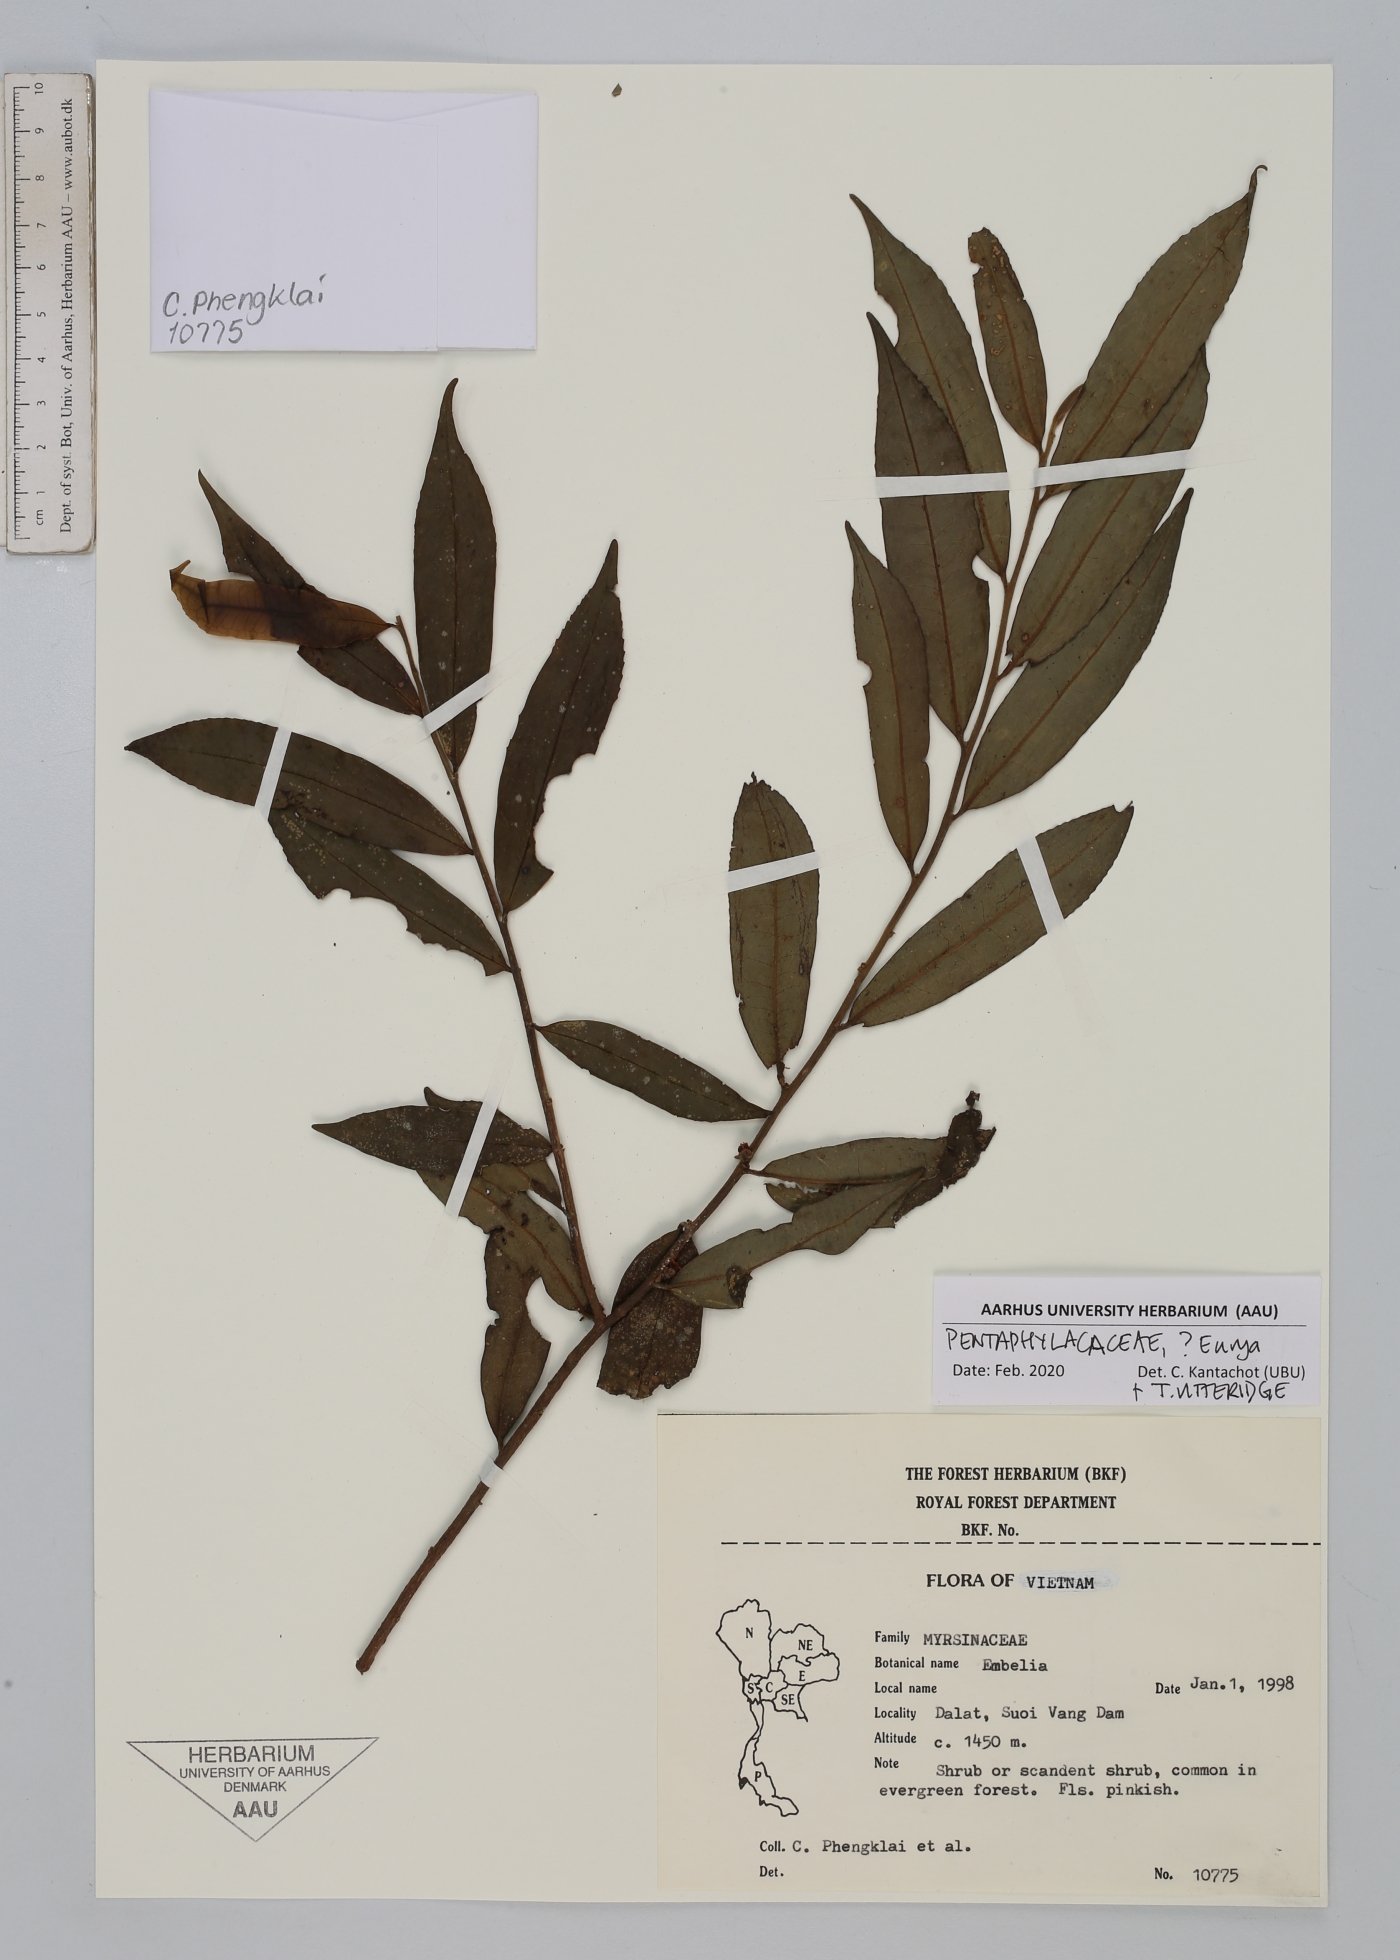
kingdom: Plantae
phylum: Tracheophyta
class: Magnoliopsida
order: Ericales
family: Pentaphylacaceae
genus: Eurya
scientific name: Eurya
